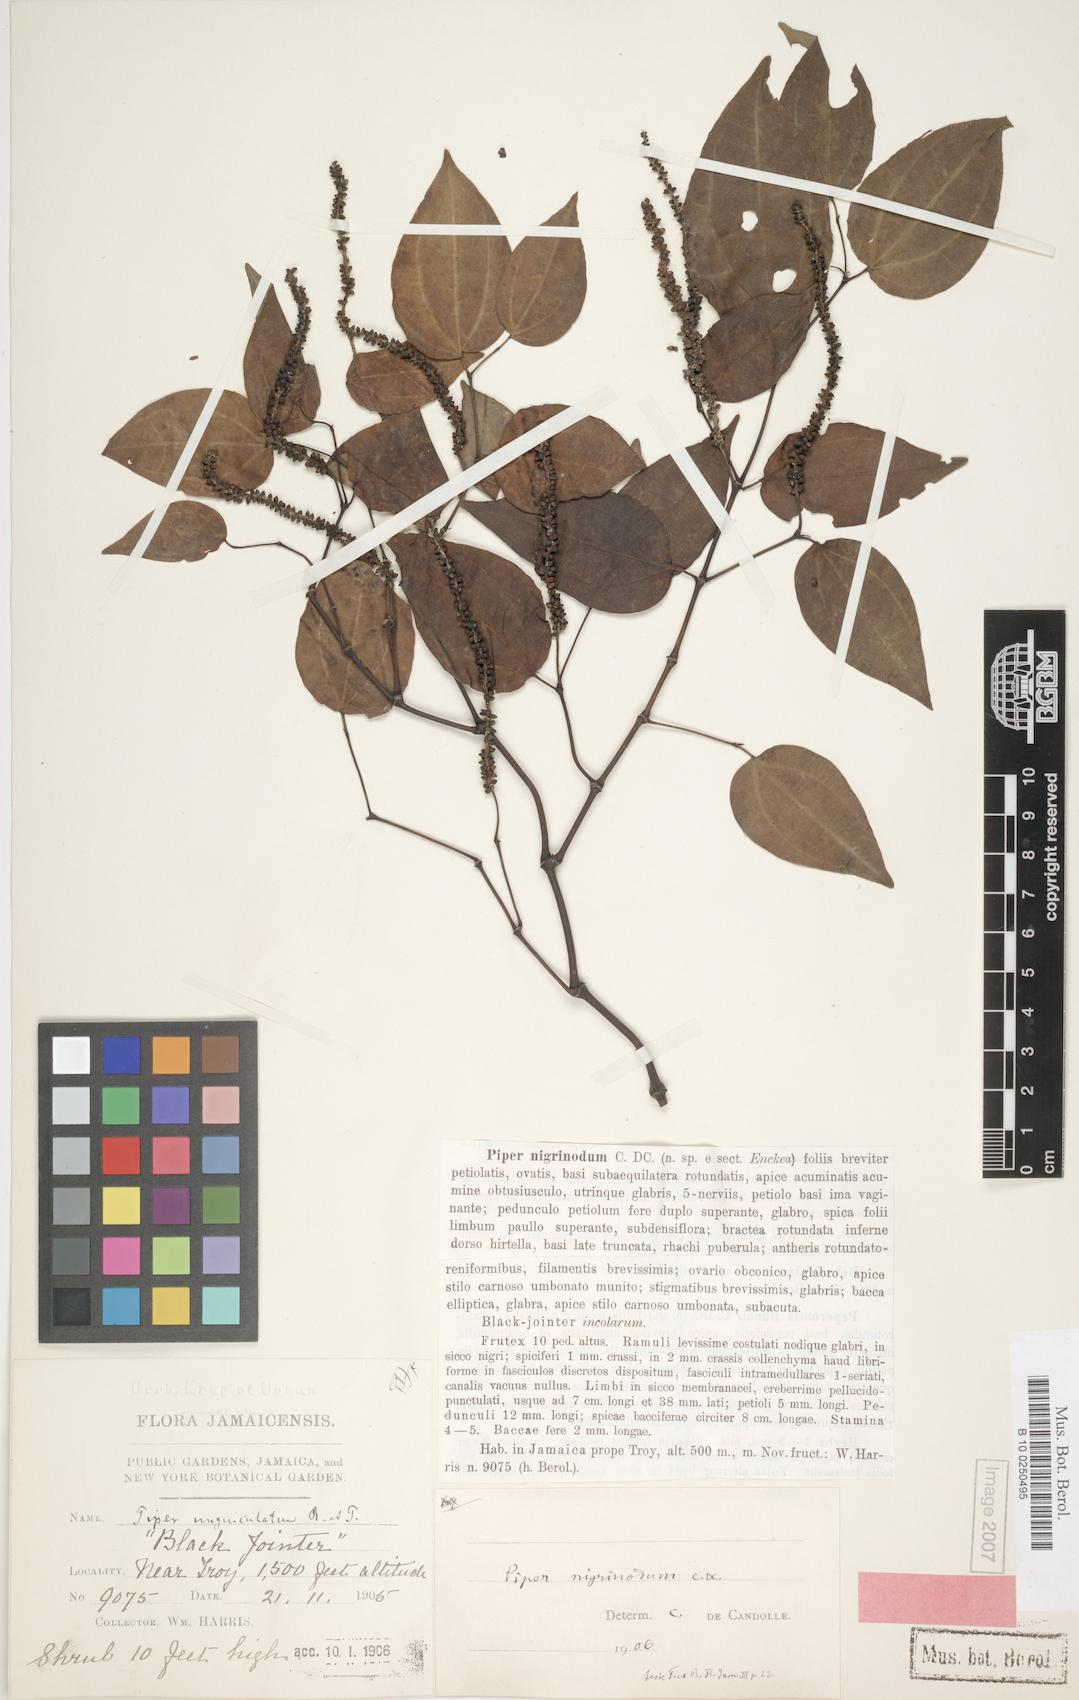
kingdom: Plantae
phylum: Tracheophyta
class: Magnoliopsida
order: Piperales
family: Piperaceae
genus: Piper
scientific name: Piper amalago
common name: Pepper-elder
